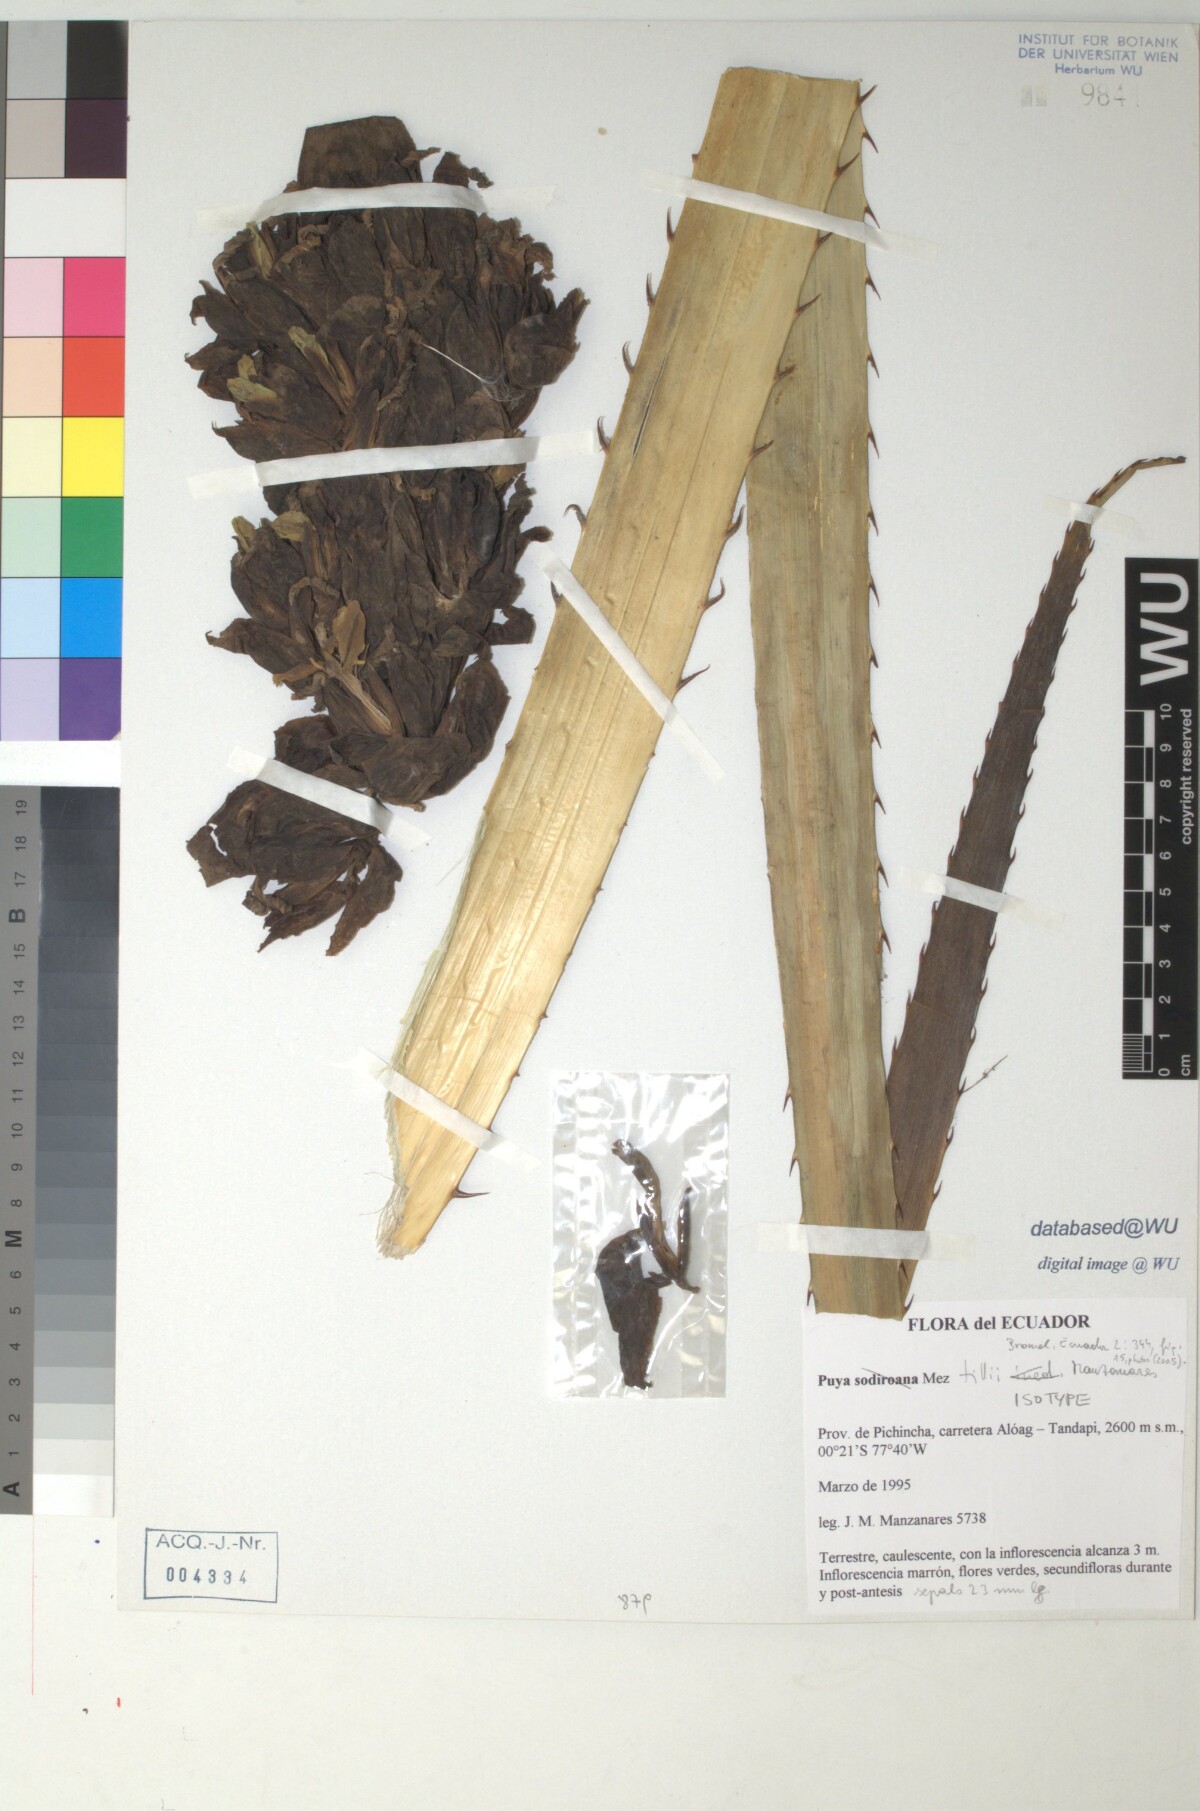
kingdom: Plantae
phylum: Tracheophyta
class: Liliopsida
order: Poales
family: Bromeliaceae
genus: Puya
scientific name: Puya tillii
